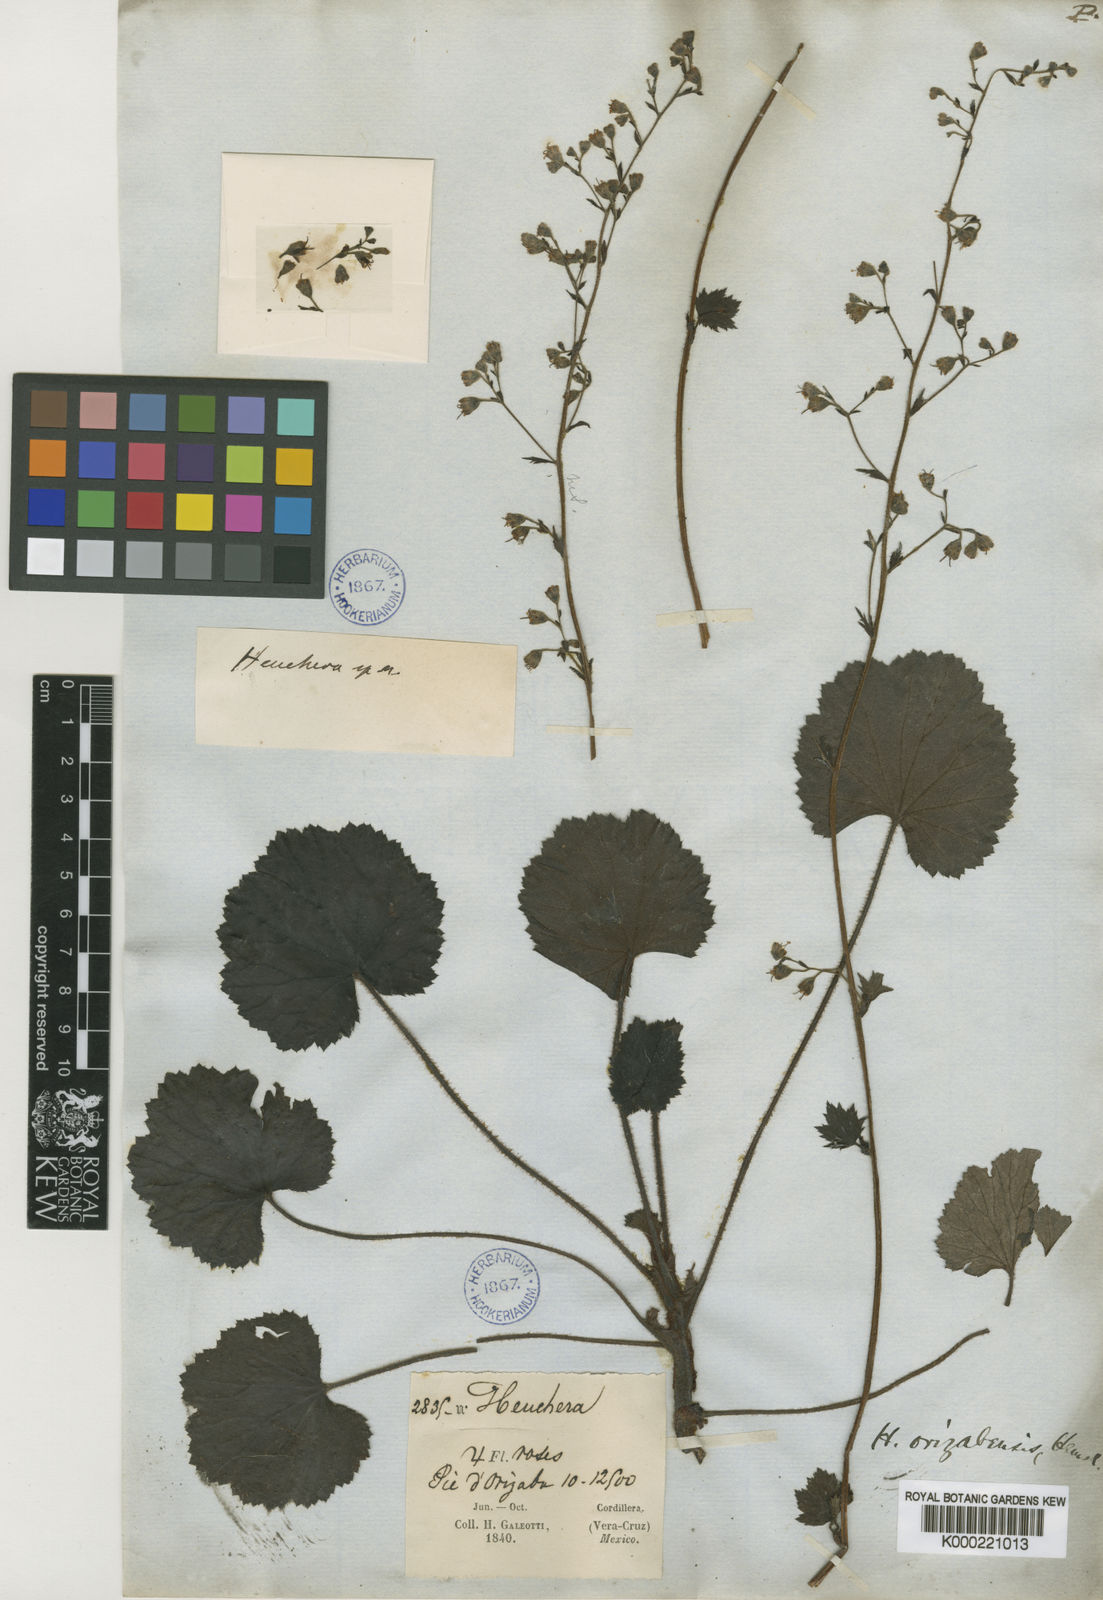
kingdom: Plantae
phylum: Tracheophyta
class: Magnoliopsida
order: Saxifragales
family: Saxifragaceae
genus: Heuchera
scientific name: Heuchera longipetala
